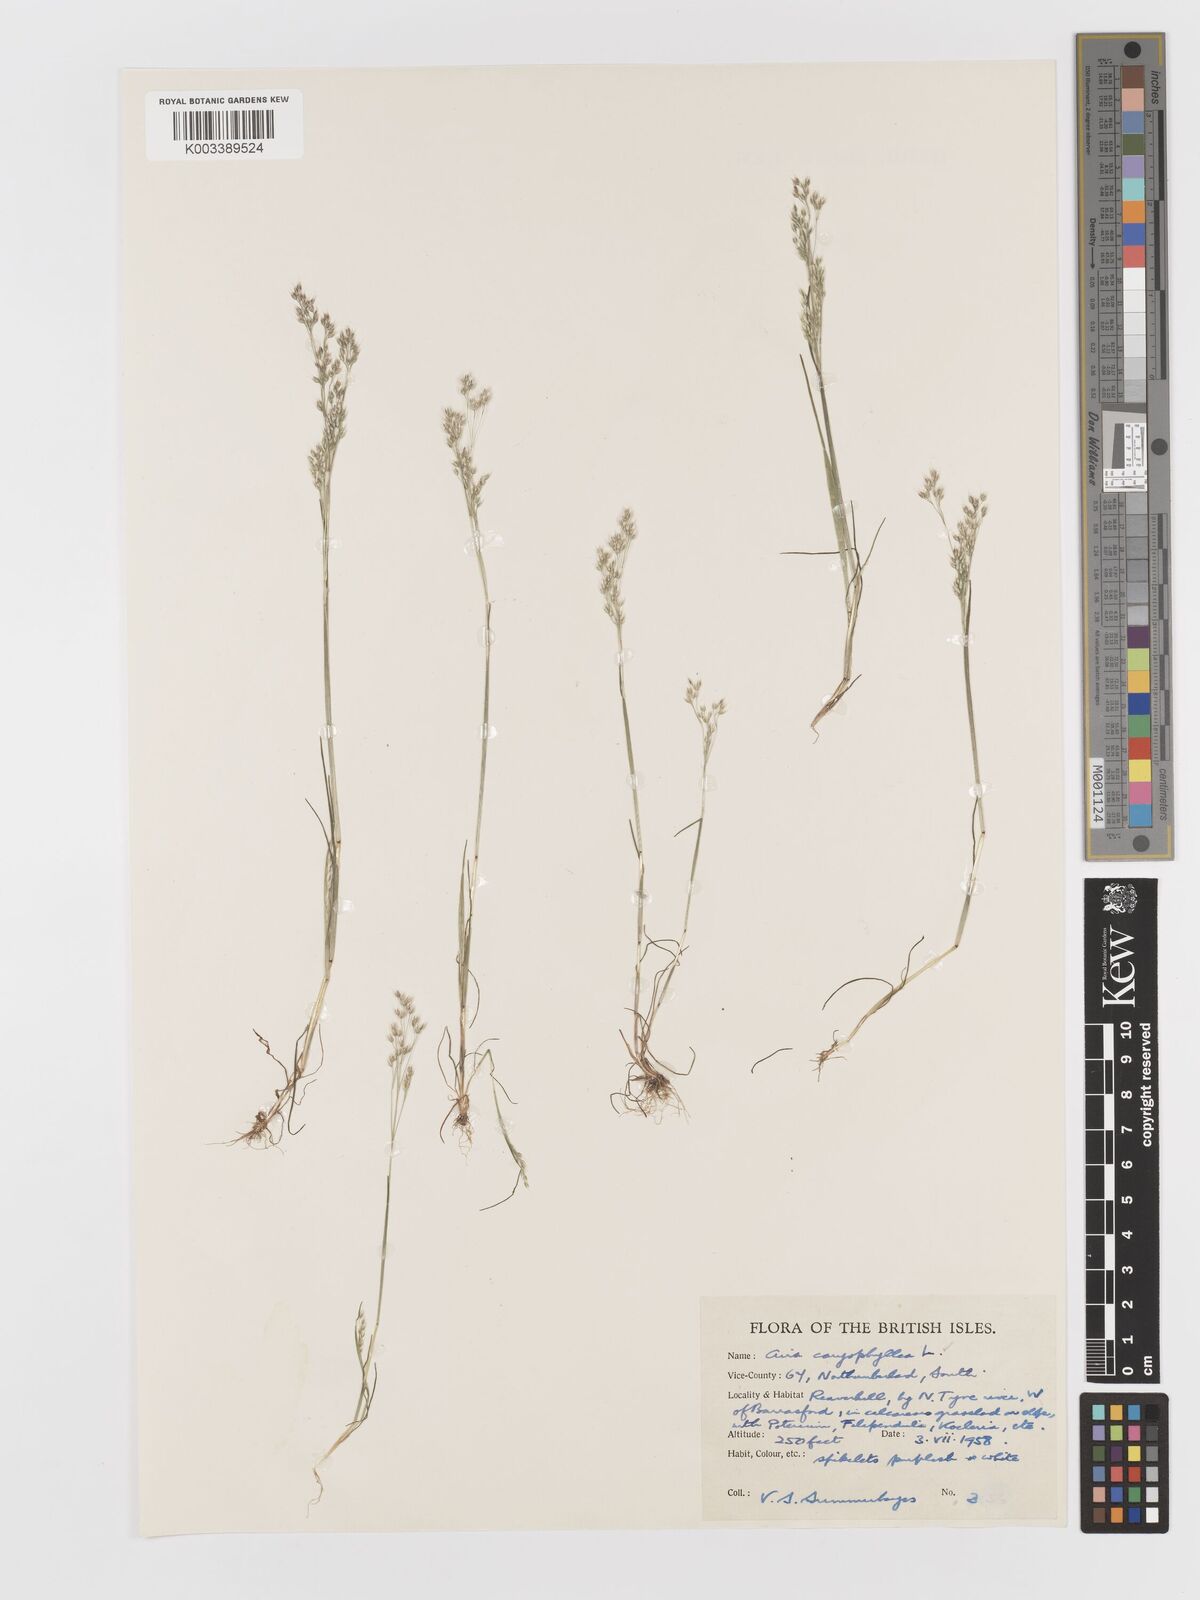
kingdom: Plantae
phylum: Tracheophyta
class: Liliopsida
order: Poales
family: Poaceae
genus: Aira
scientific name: Aira caryophyllea
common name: Silver hairgrass
